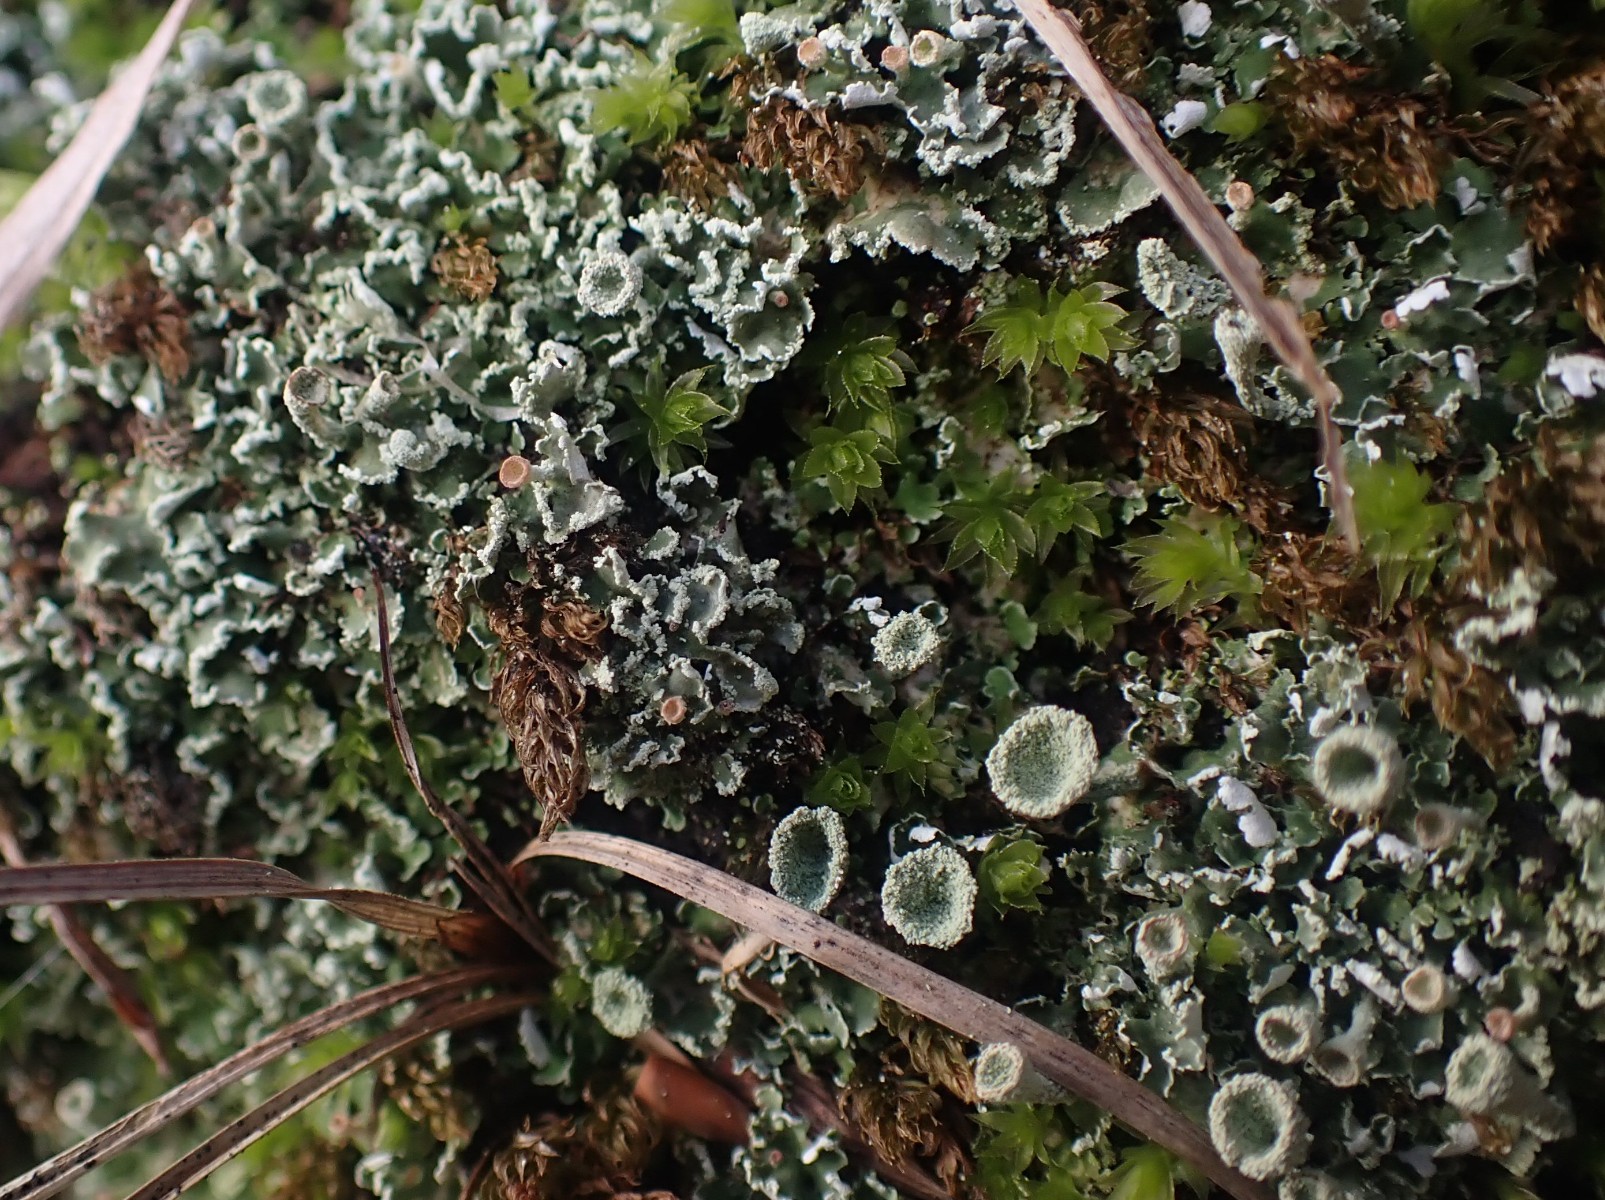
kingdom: Fungi
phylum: Ascomycota
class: Lecanoromycetes
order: Lecanorales
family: Cladoniaceae
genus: Cladonia
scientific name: Cladonia humilis
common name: lav bægerlav
